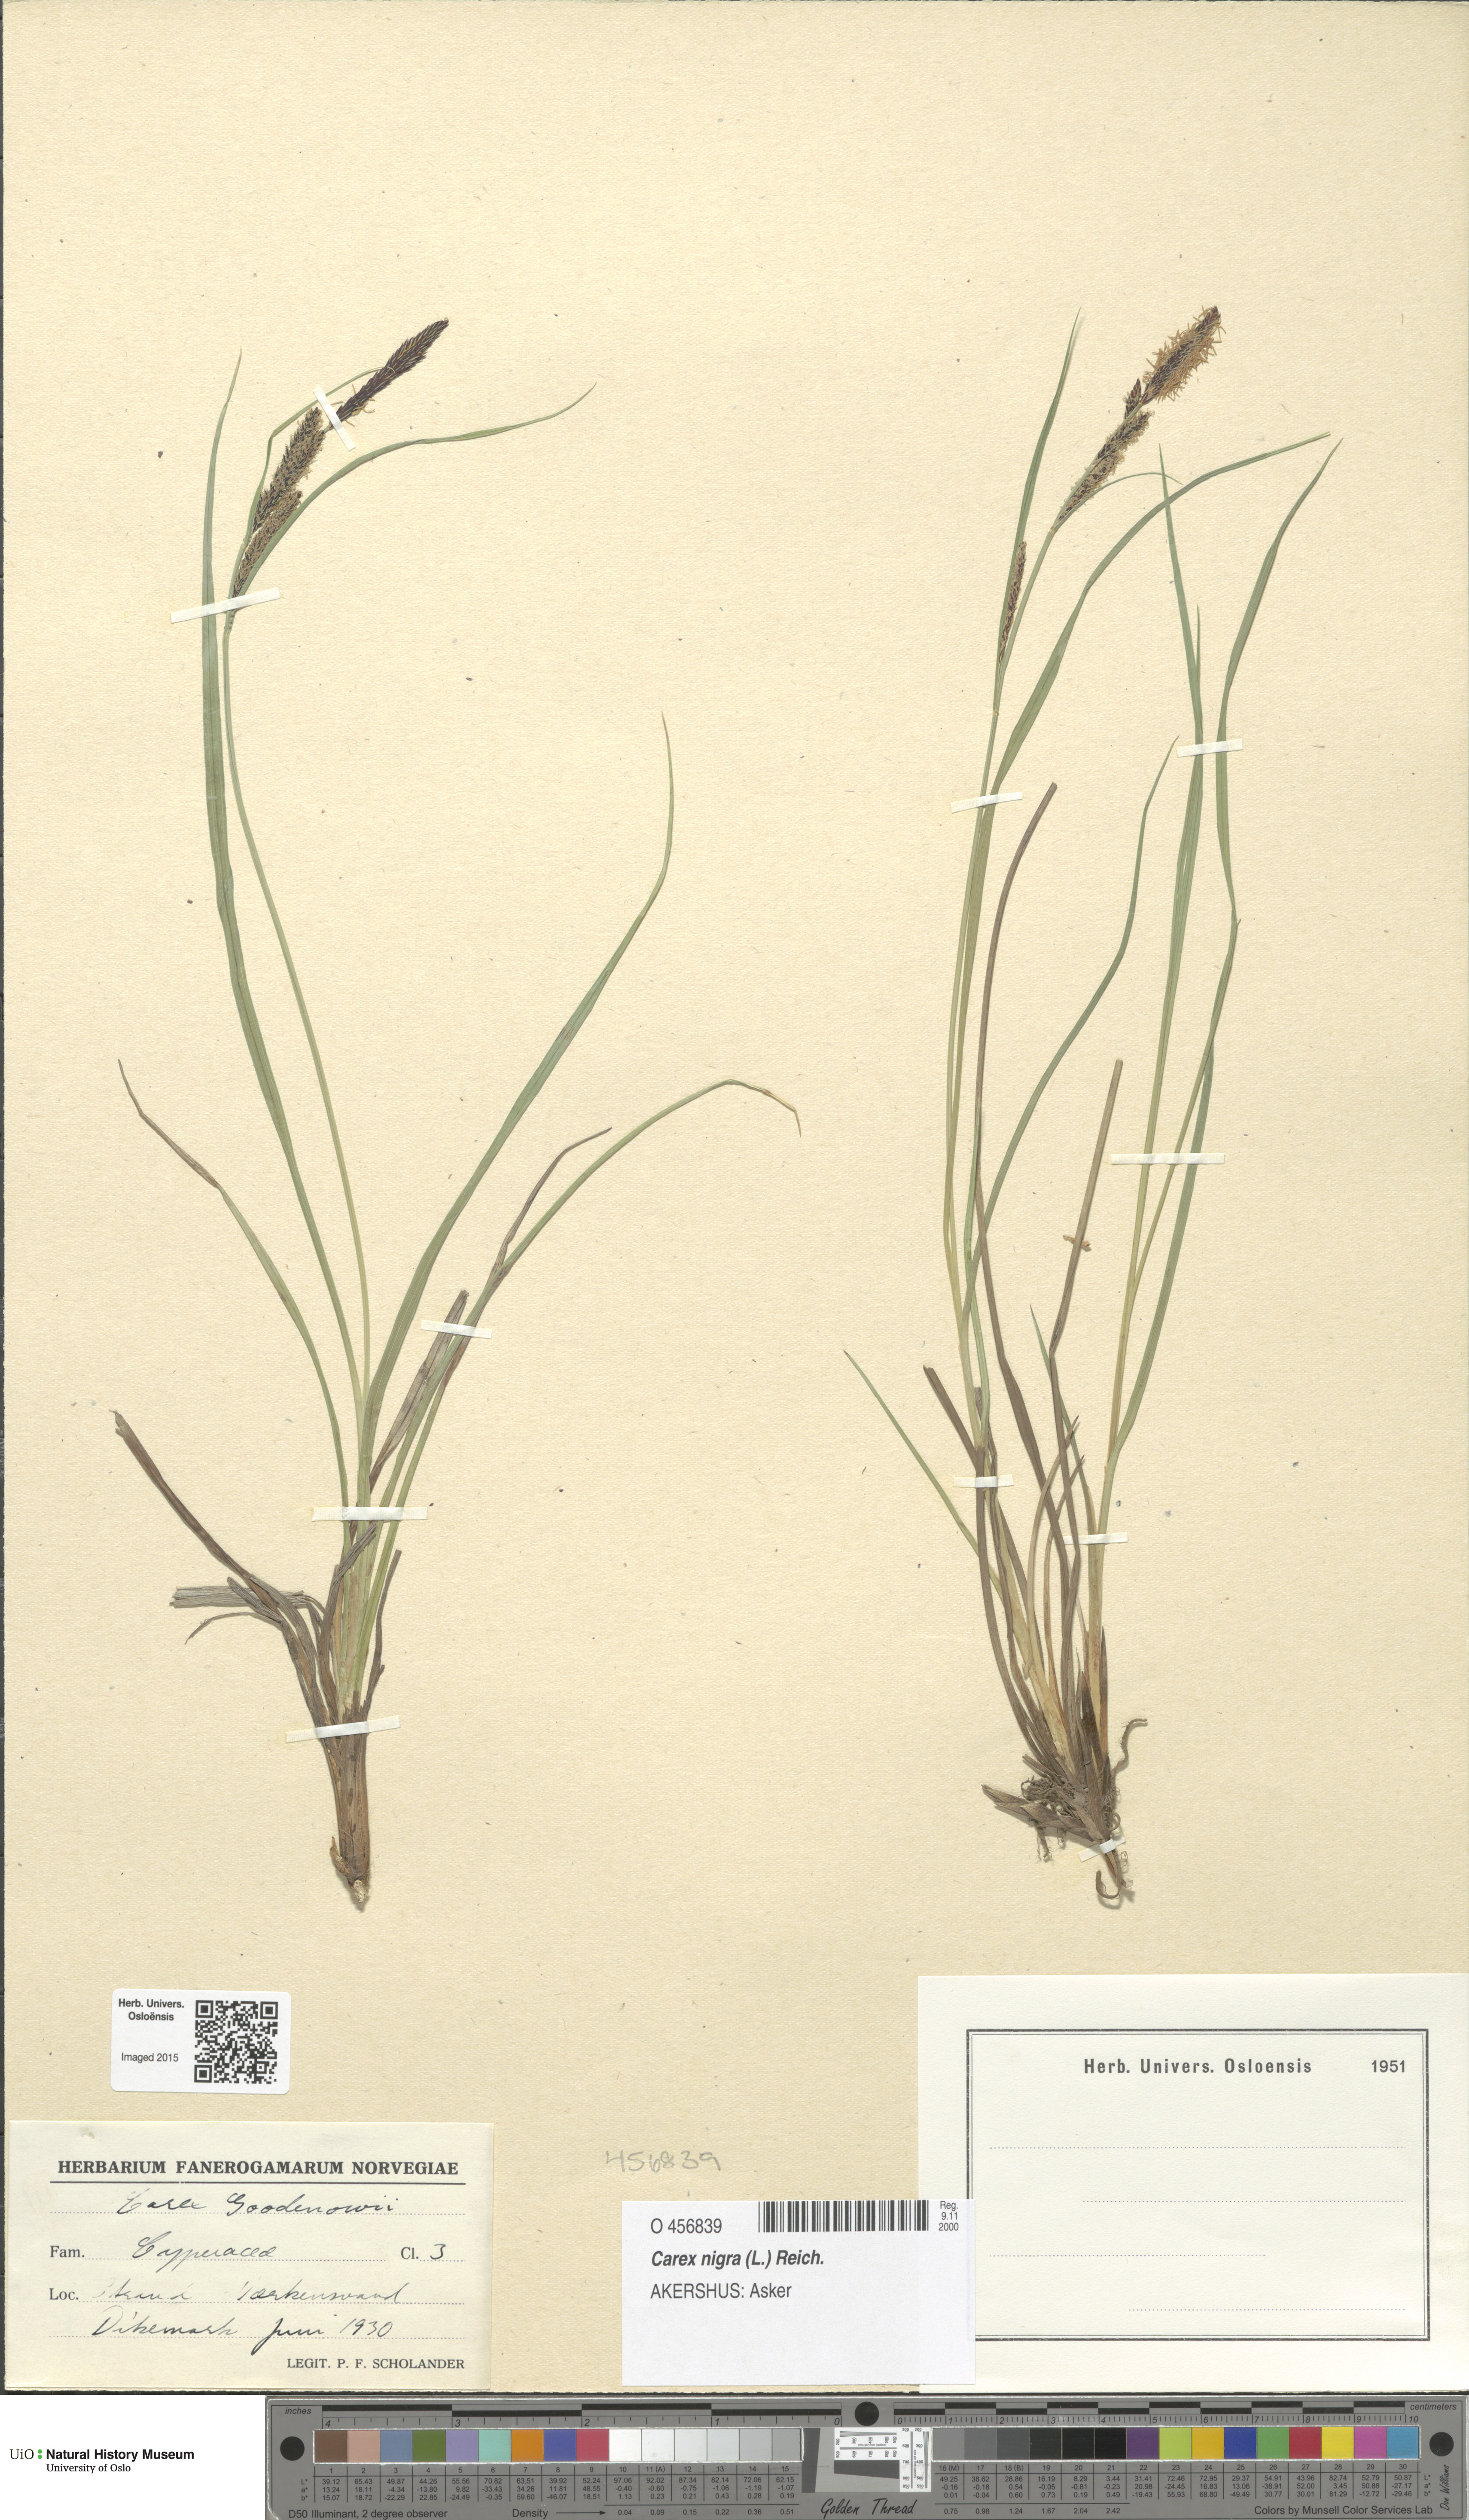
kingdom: Plantae
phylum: Tracheophyta
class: Liliopsida
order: Poales
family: Cyperaceae
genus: Carex
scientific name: Carex nigra
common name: Common sedge
